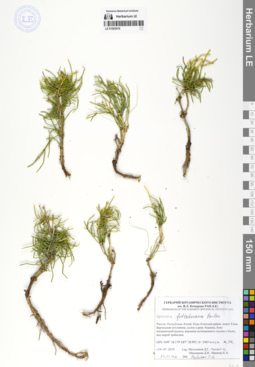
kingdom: Plantae
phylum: Tracheophyta
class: Gnetopsida
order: Ephedrales
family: Ephedraceae
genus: Ephedra
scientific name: Ephedra fedtschenkoae
